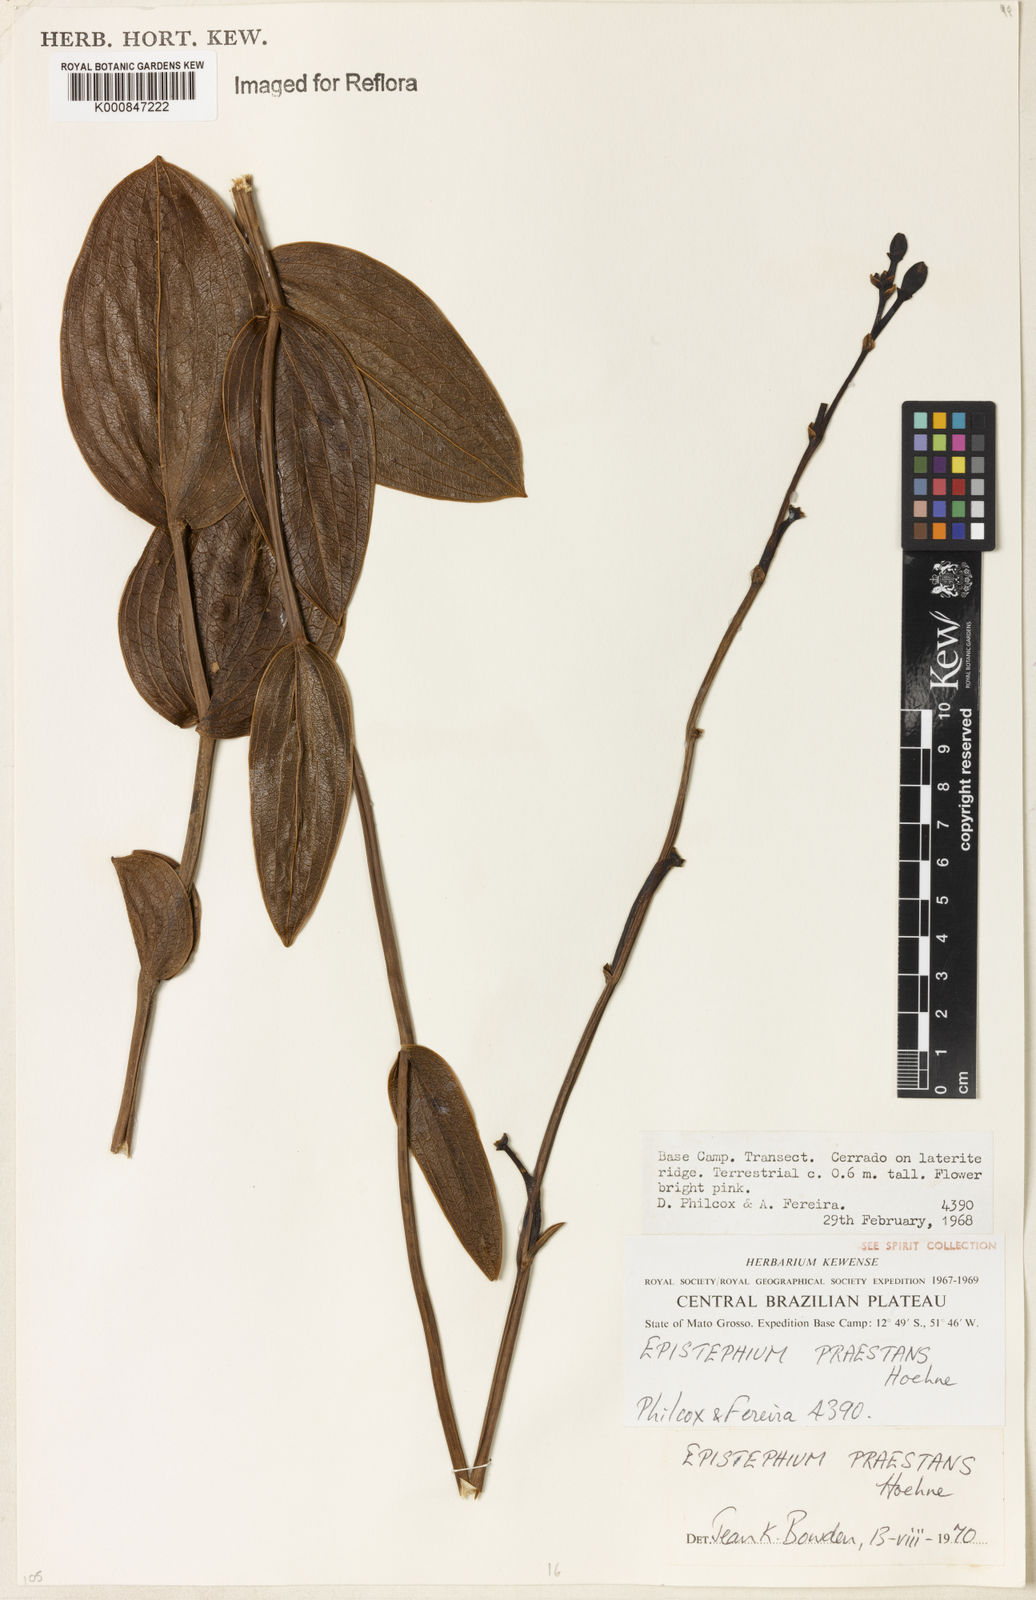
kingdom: Plantae
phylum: Tracheophyta
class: Liliopsida
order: Asparagales
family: Orchidaceae
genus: Epistephium
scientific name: Epistephium sclerophyllum
